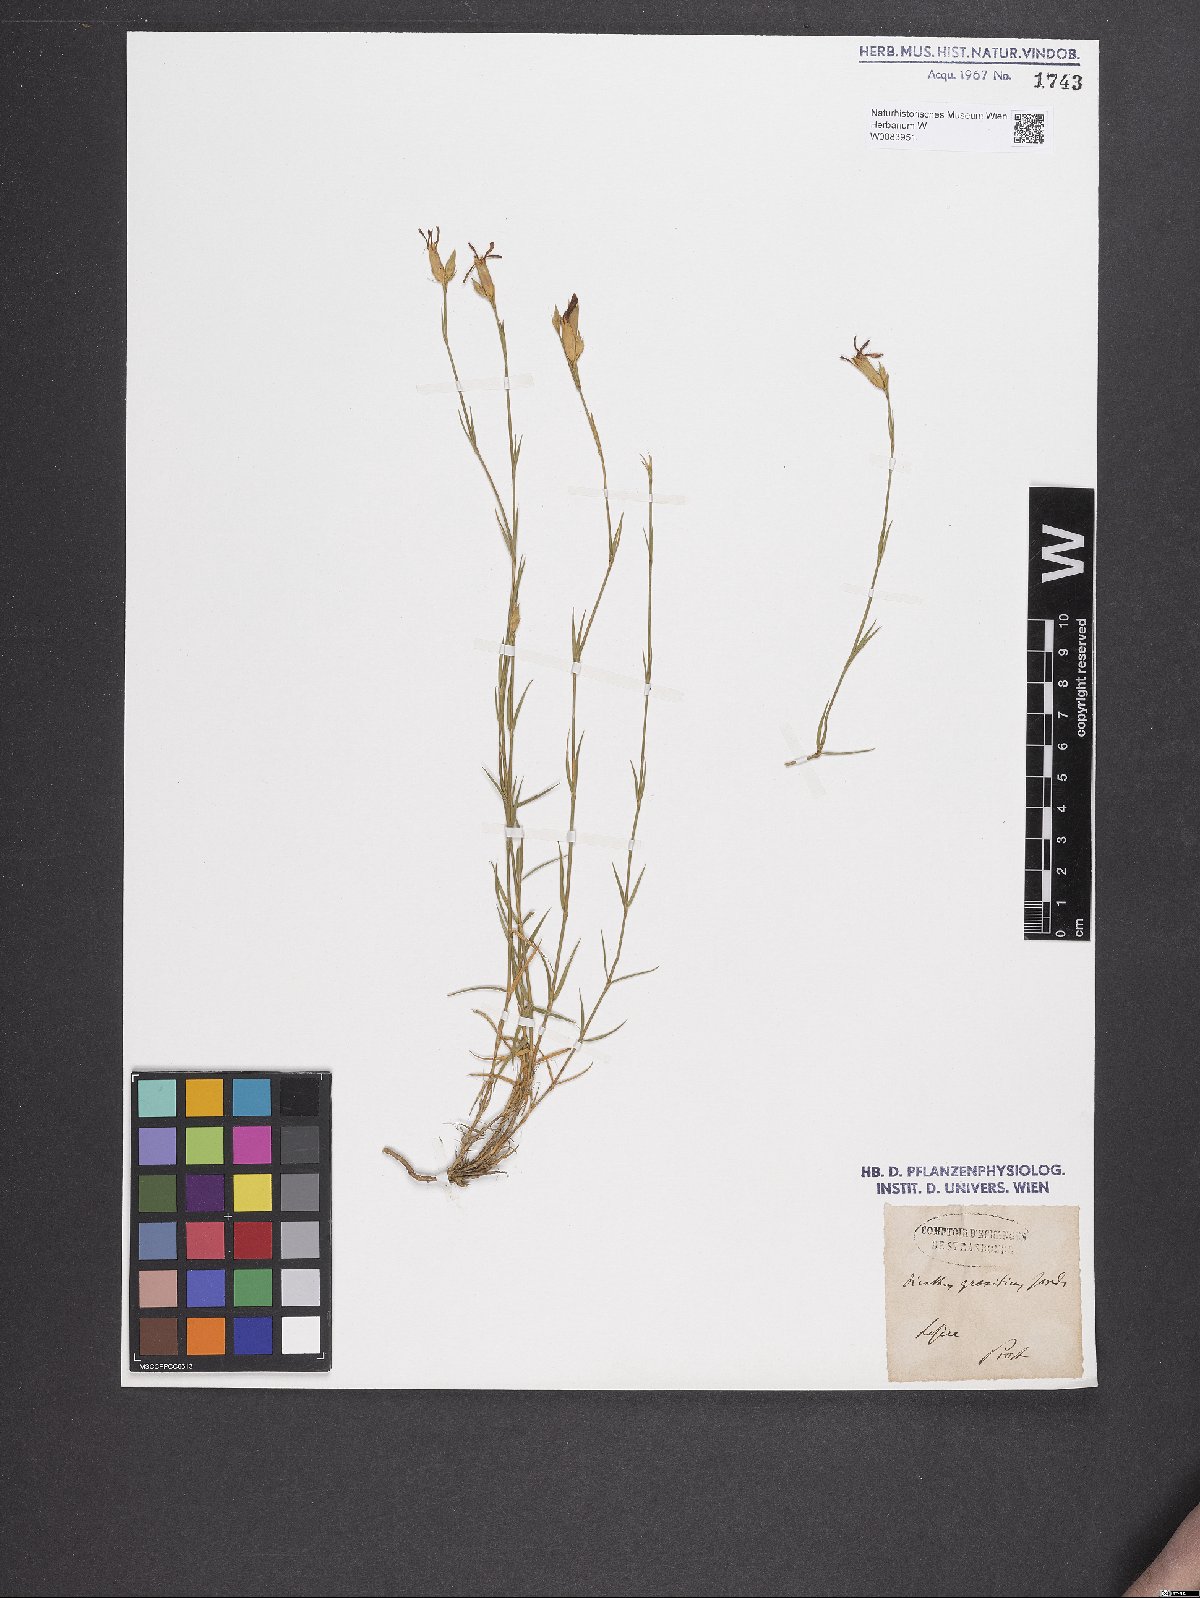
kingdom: Plantae
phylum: Tracheophyta
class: Magnoliopsida
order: Caryophyllales
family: Caryophyllaceae
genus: Dianthus
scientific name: Dianthus graniticus
